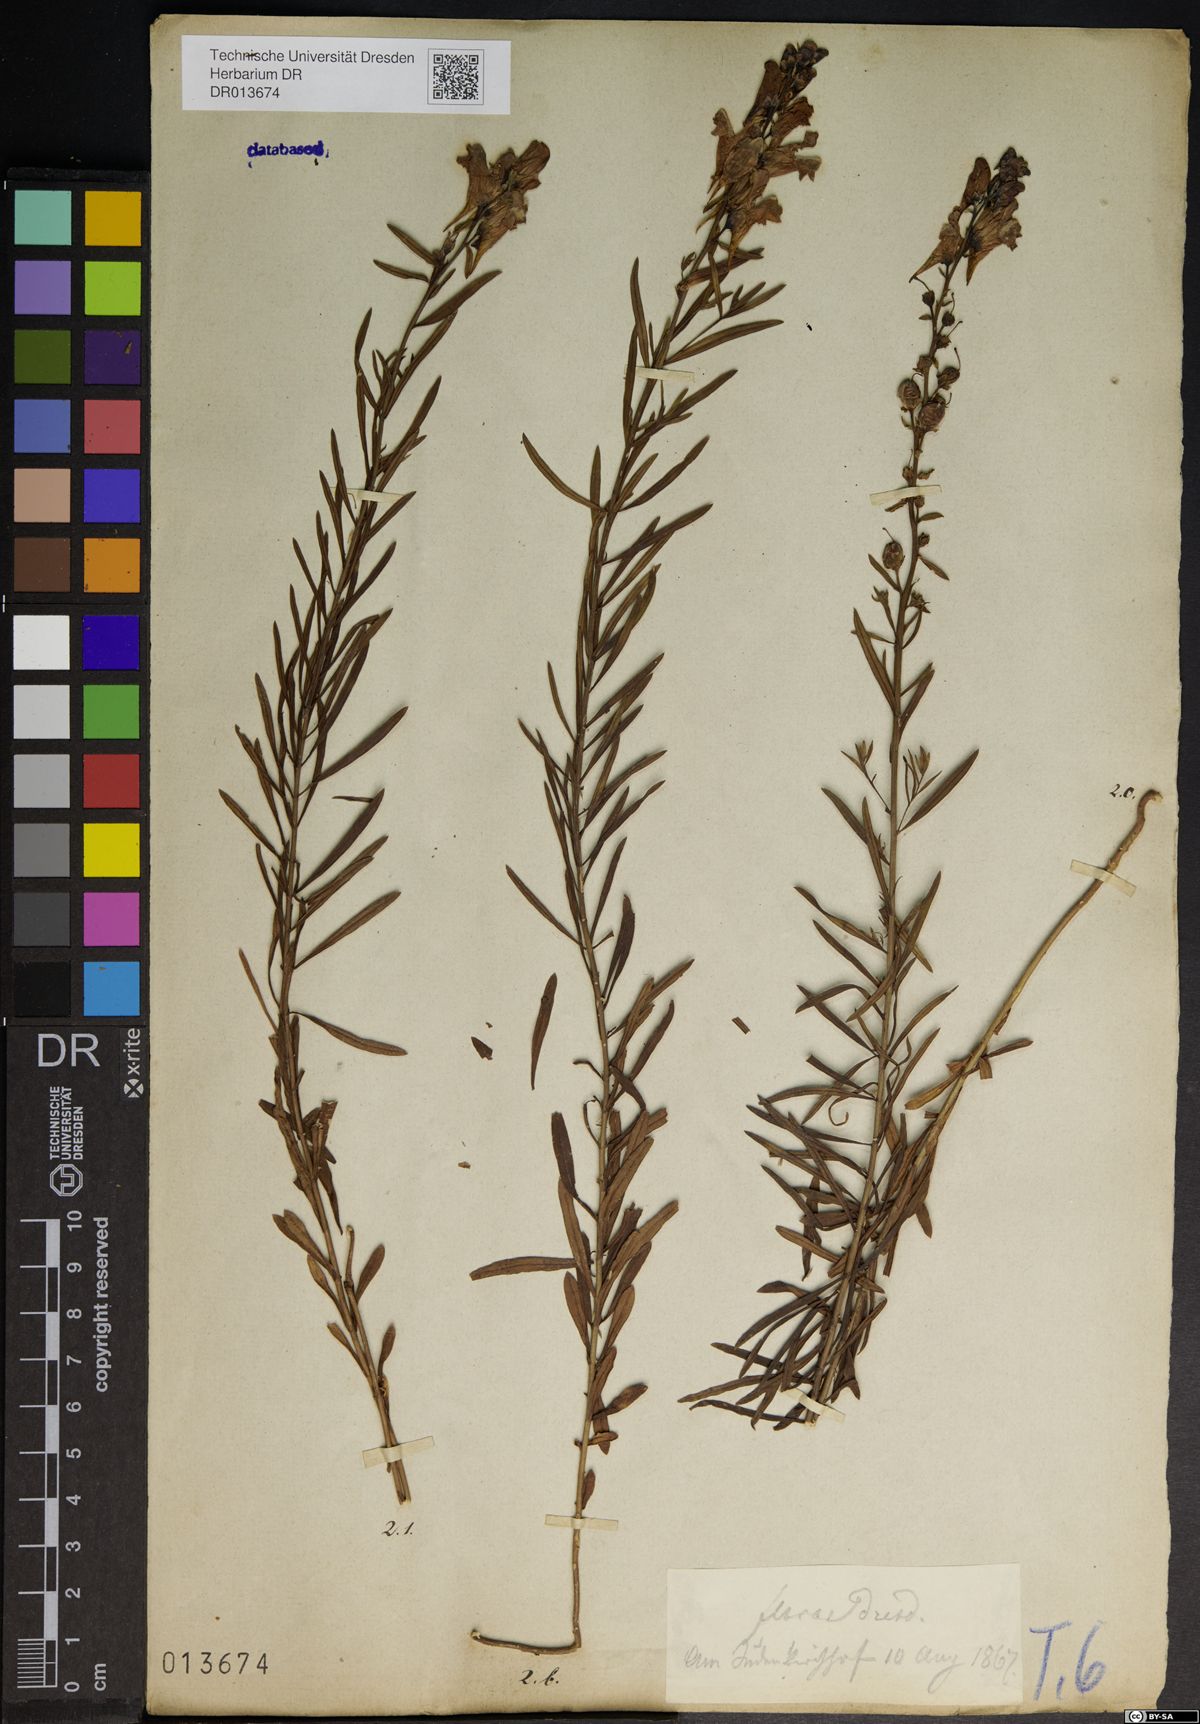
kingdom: Plantae
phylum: Tracheophyta
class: Magnoliopsida
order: Lamiales
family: Plantaginaceae
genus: Linaria
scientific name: Linaria vulgaris
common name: Butter and eggs
